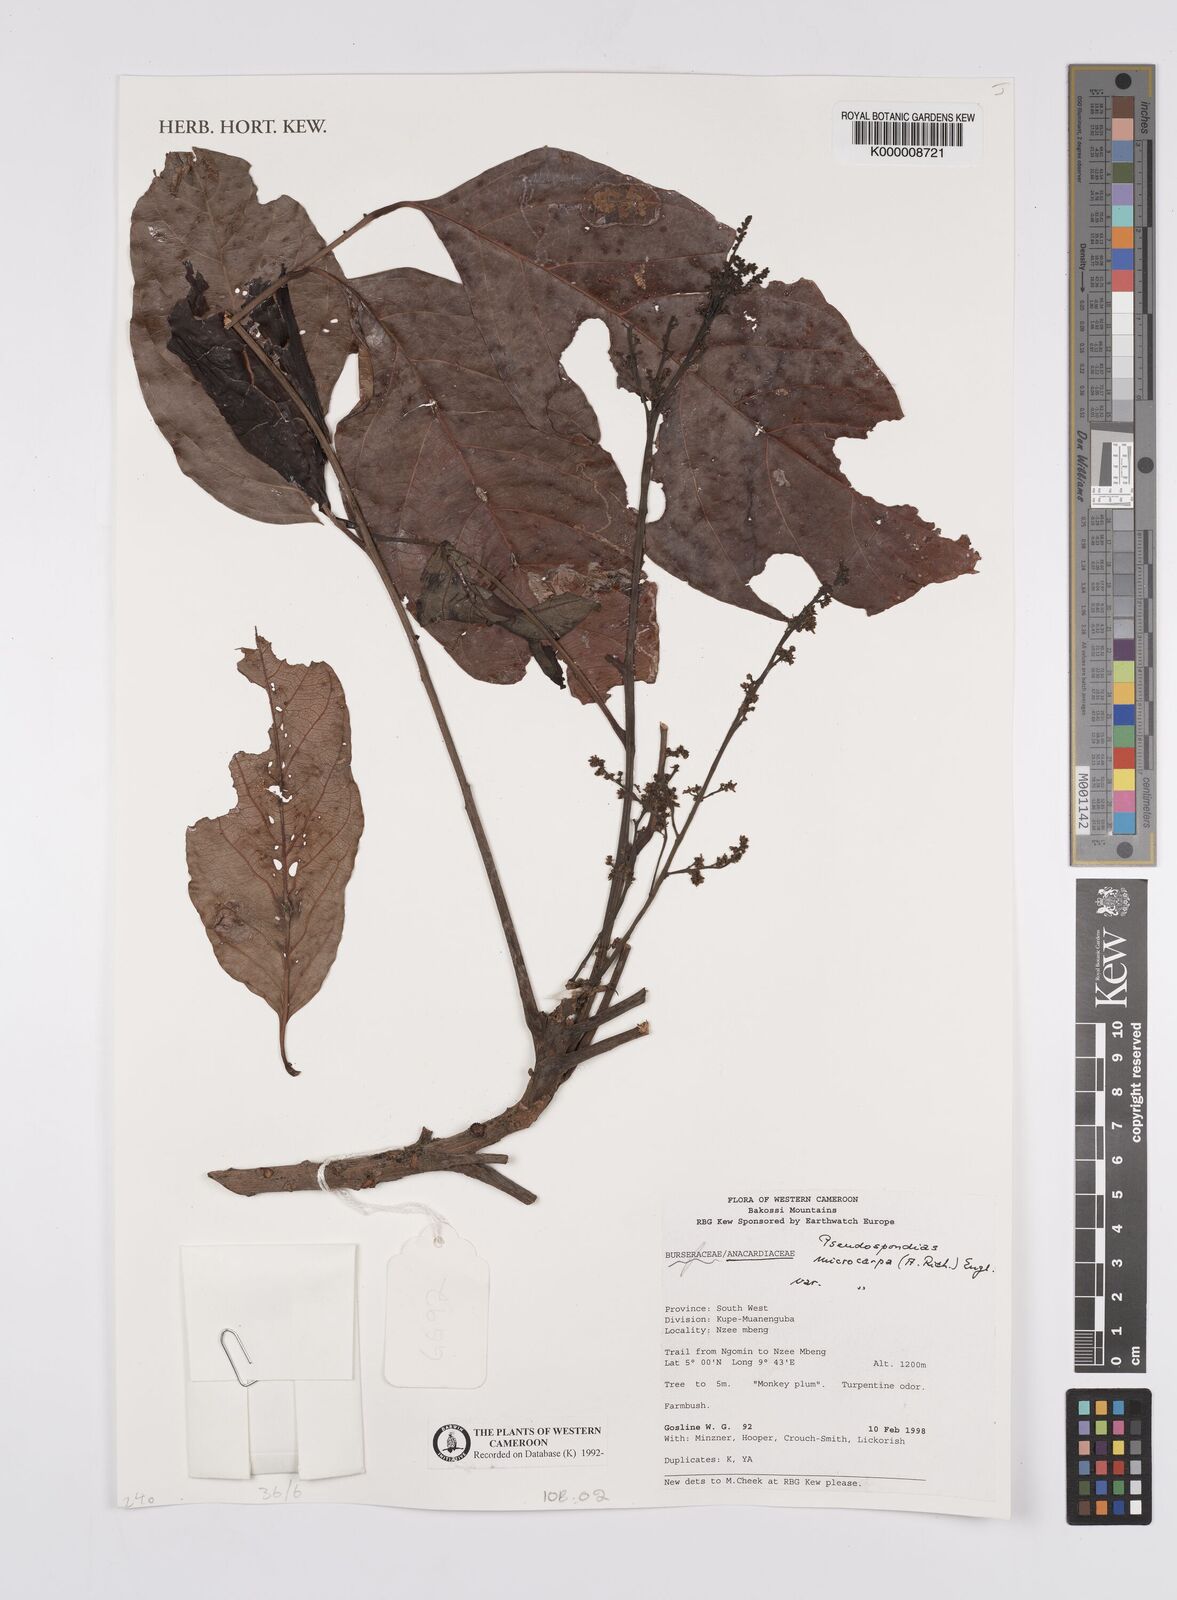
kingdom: Plantae
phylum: Tracheophyta
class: Magnoliopsida
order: Sapindales
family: Anacardiaceae
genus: Pseudospondias
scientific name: Pseudospondias microcarpa
